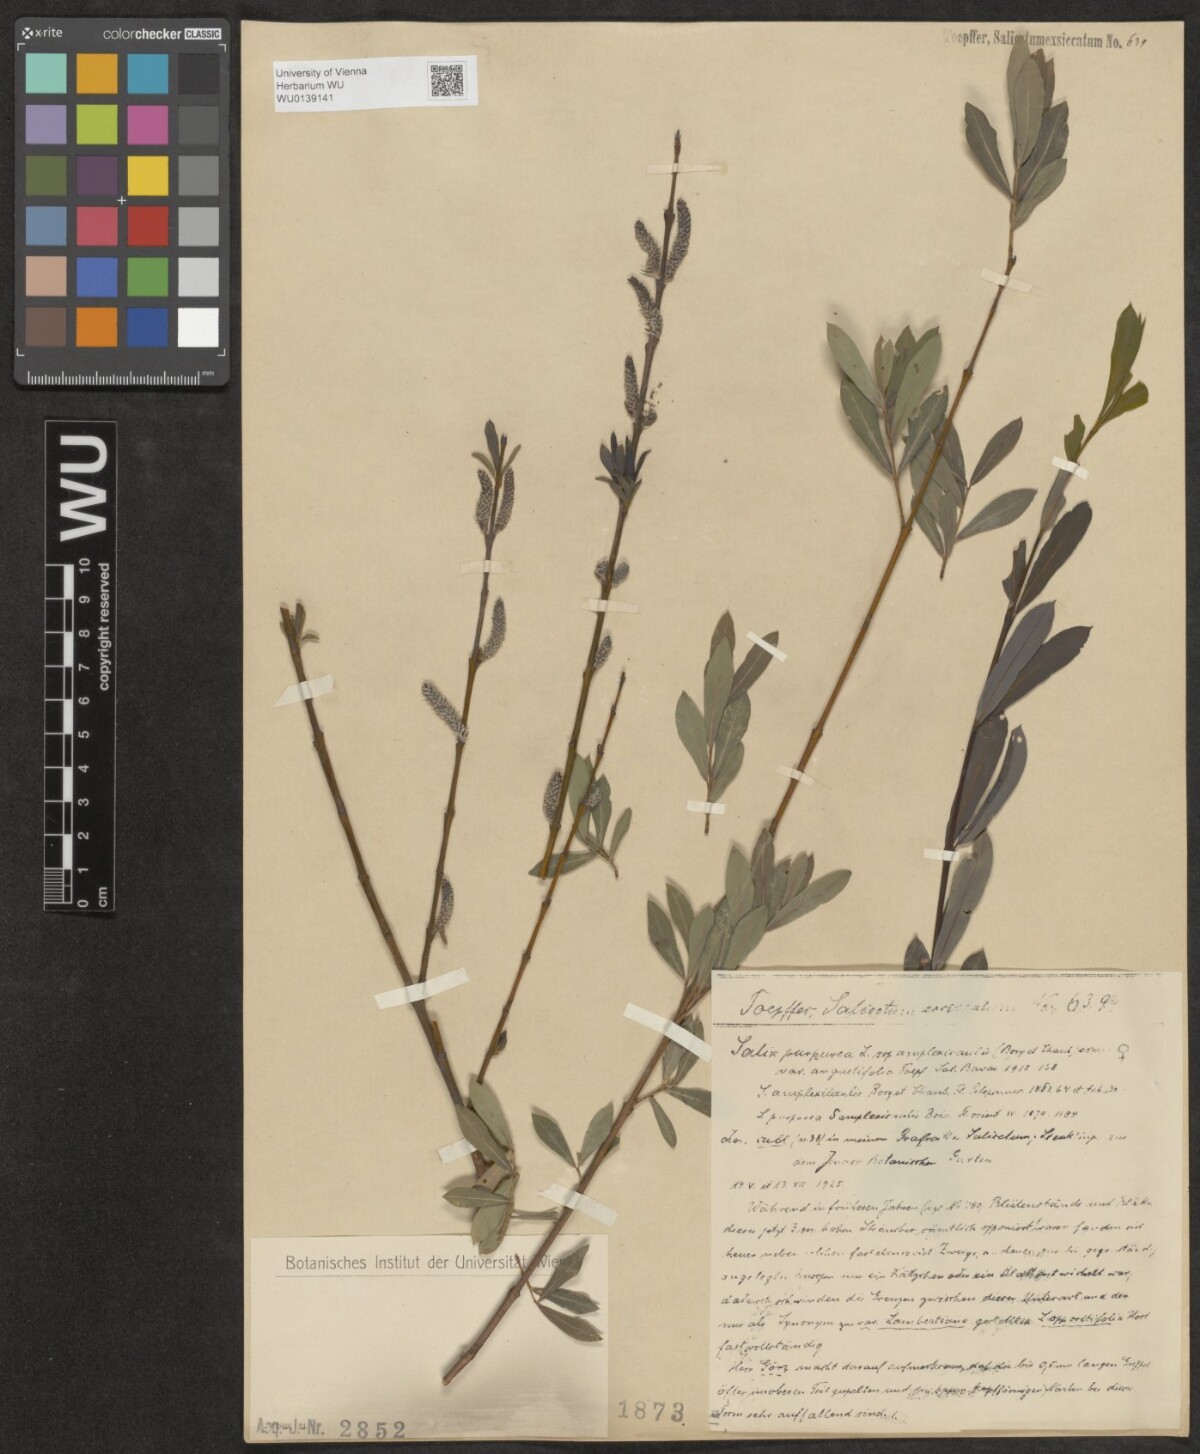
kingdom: Plantae
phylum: Tracheophyta
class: Magnoliopsida
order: Malpighiales
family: Salicaceae
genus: Salix
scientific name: Salix amplexicaulis
